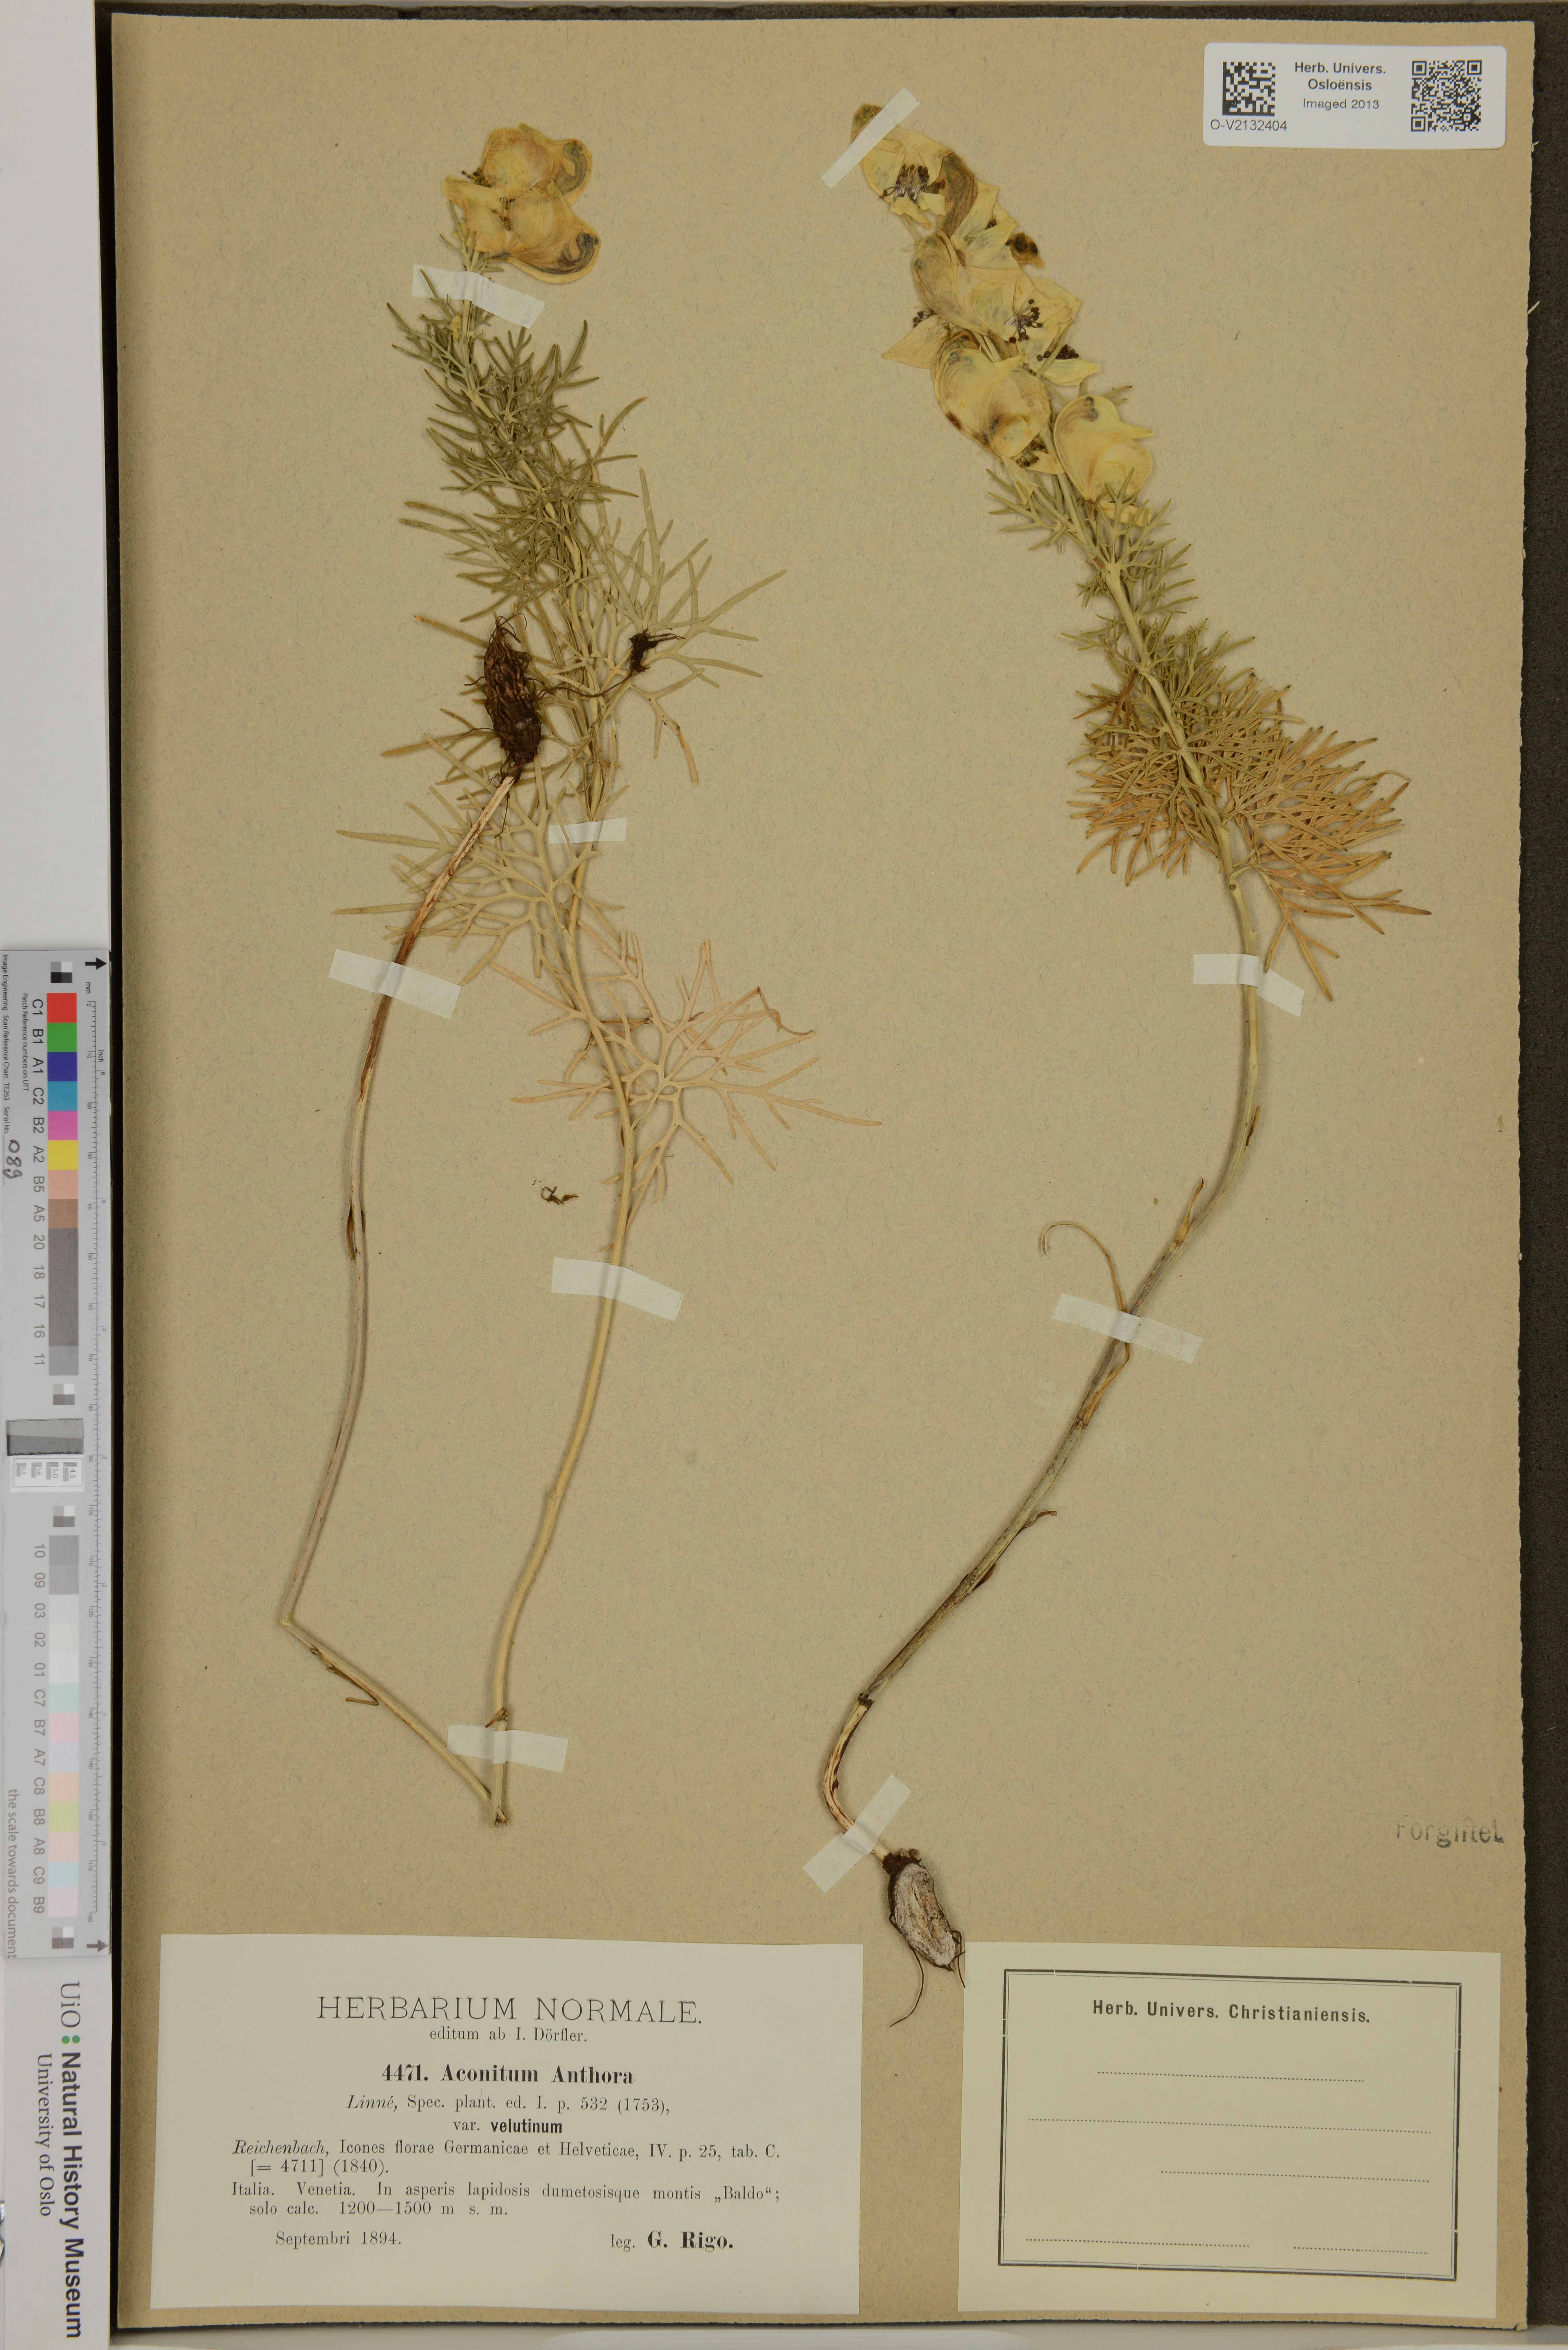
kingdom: Plantae
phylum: Tracheophyta
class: Magnoliopsida
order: Ranunculales
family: Ranunculaceae
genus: Aconitum
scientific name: Aconitum anthora
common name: Yellow monkshood
